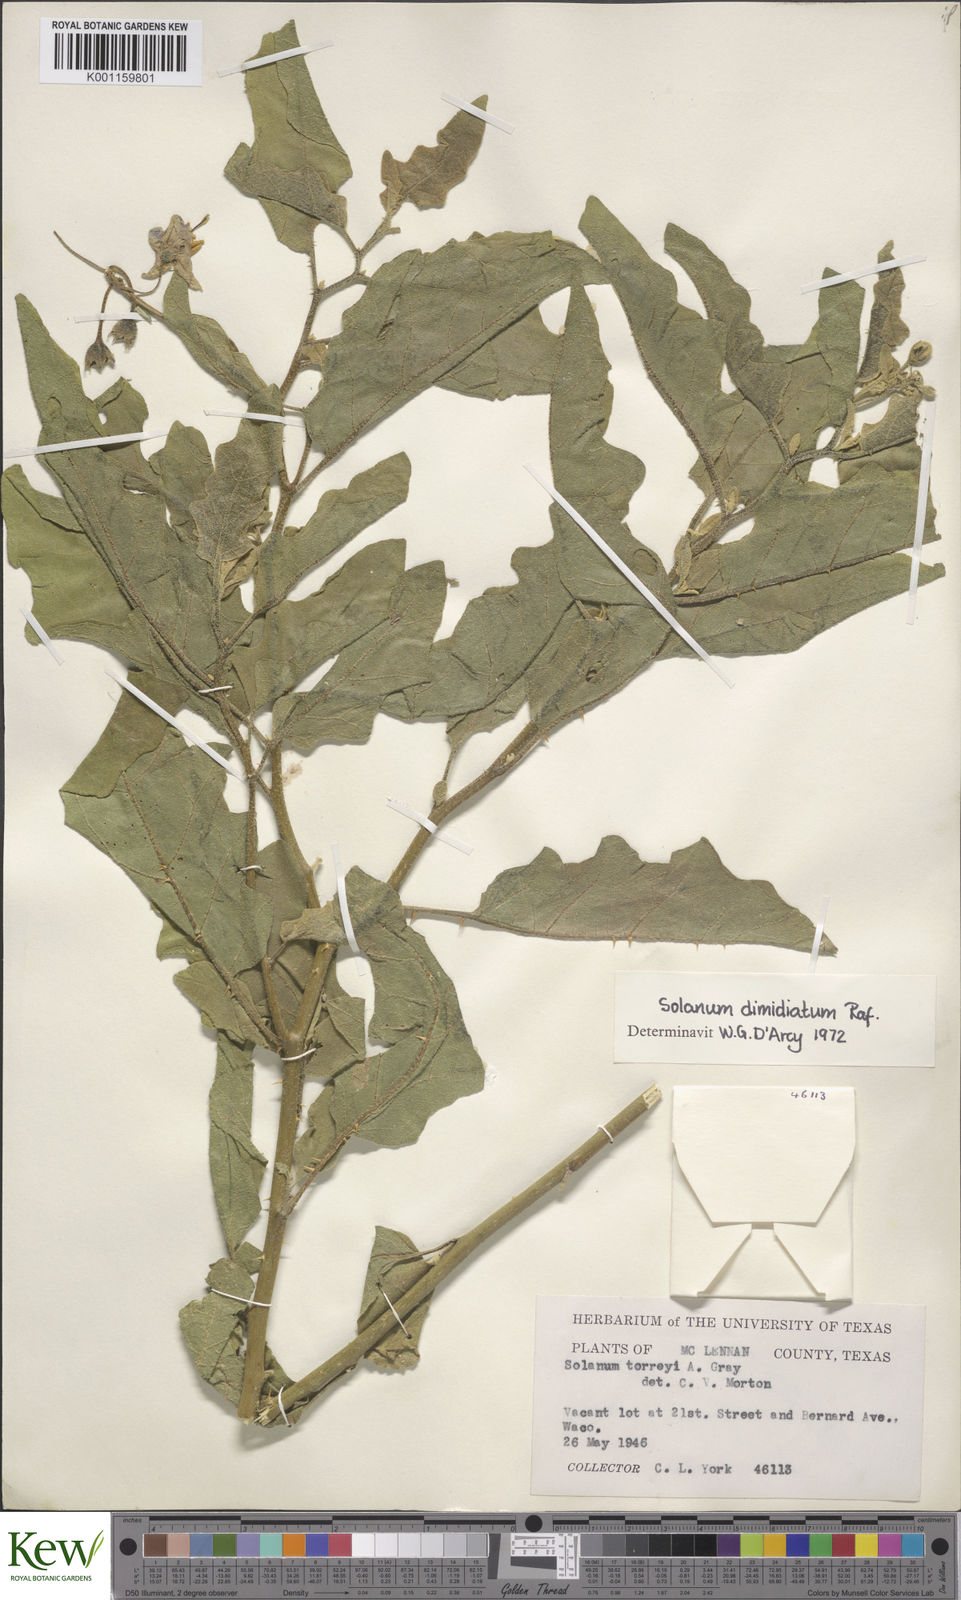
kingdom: Plantae
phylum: Tracheophyta
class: Magnoliopsida
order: Solanales
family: Solanaceae
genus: Solanum
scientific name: Solanum
